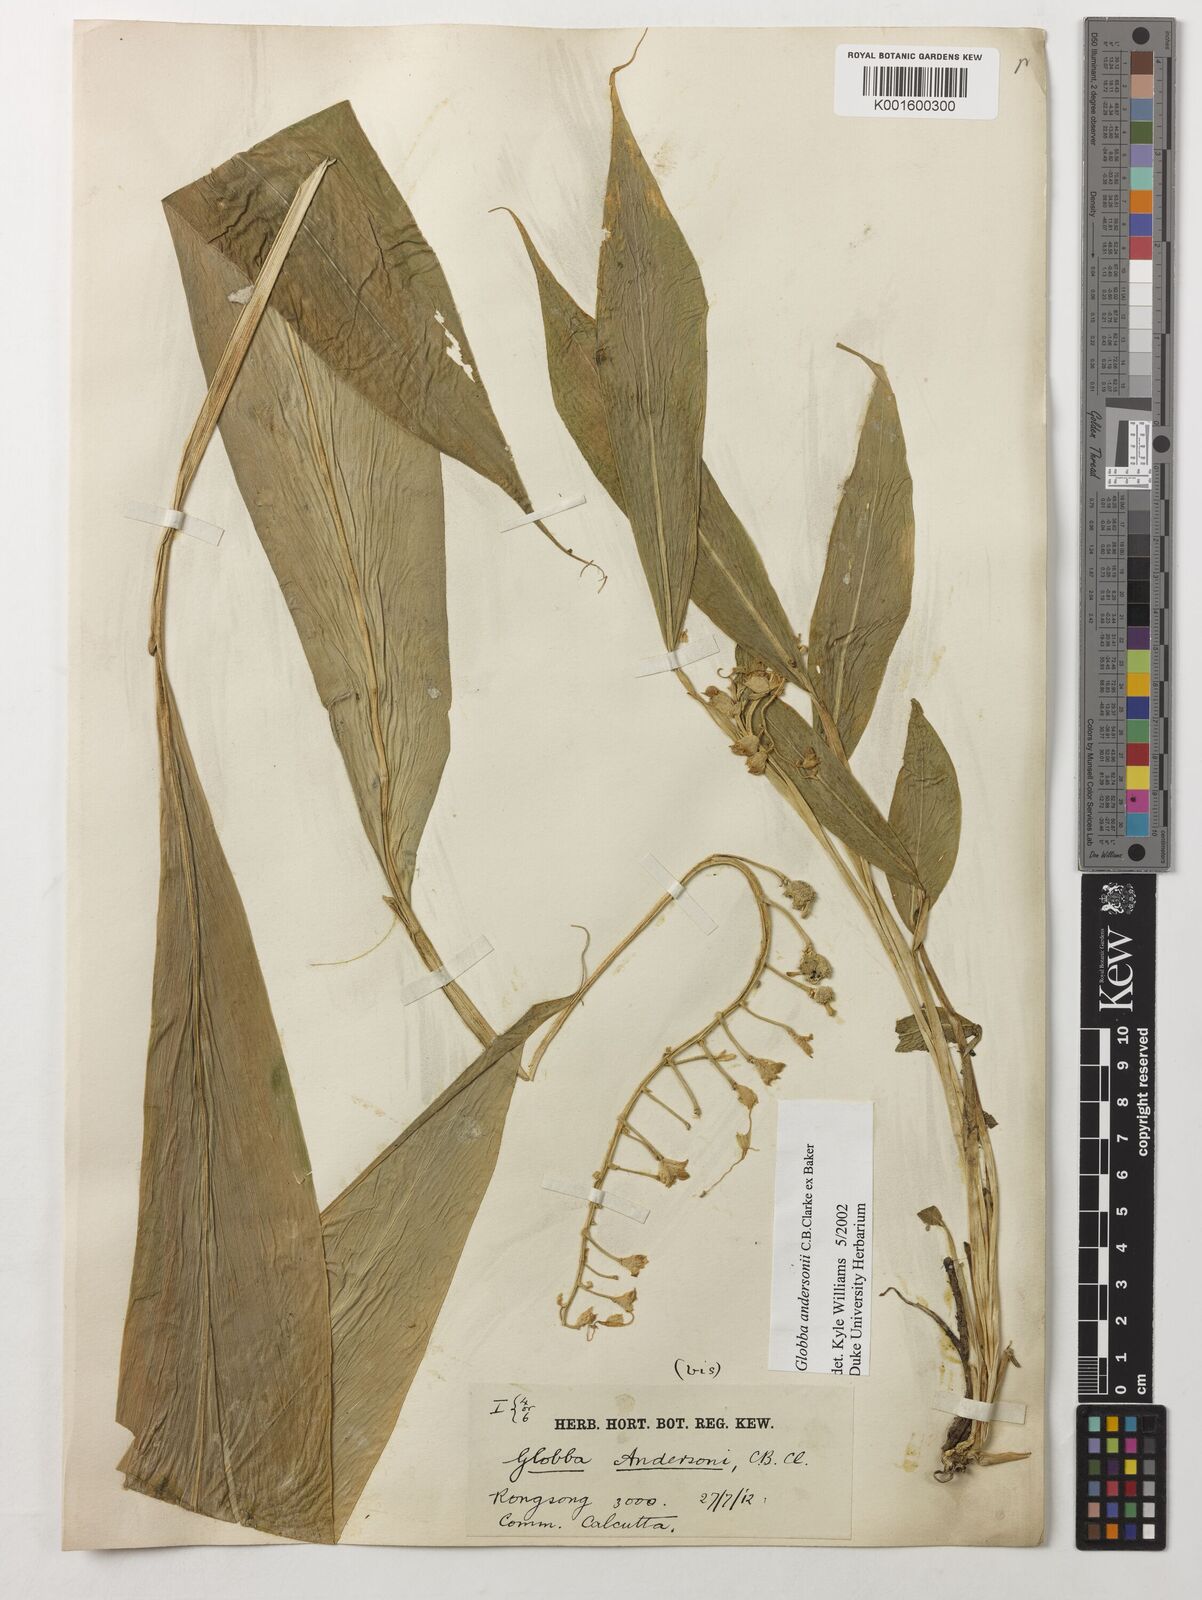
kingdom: Plantae
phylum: Tracheophyta
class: Liliopsida
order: Zingiberales
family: Zingiberaceae
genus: Globba
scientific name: Globba andersonii
